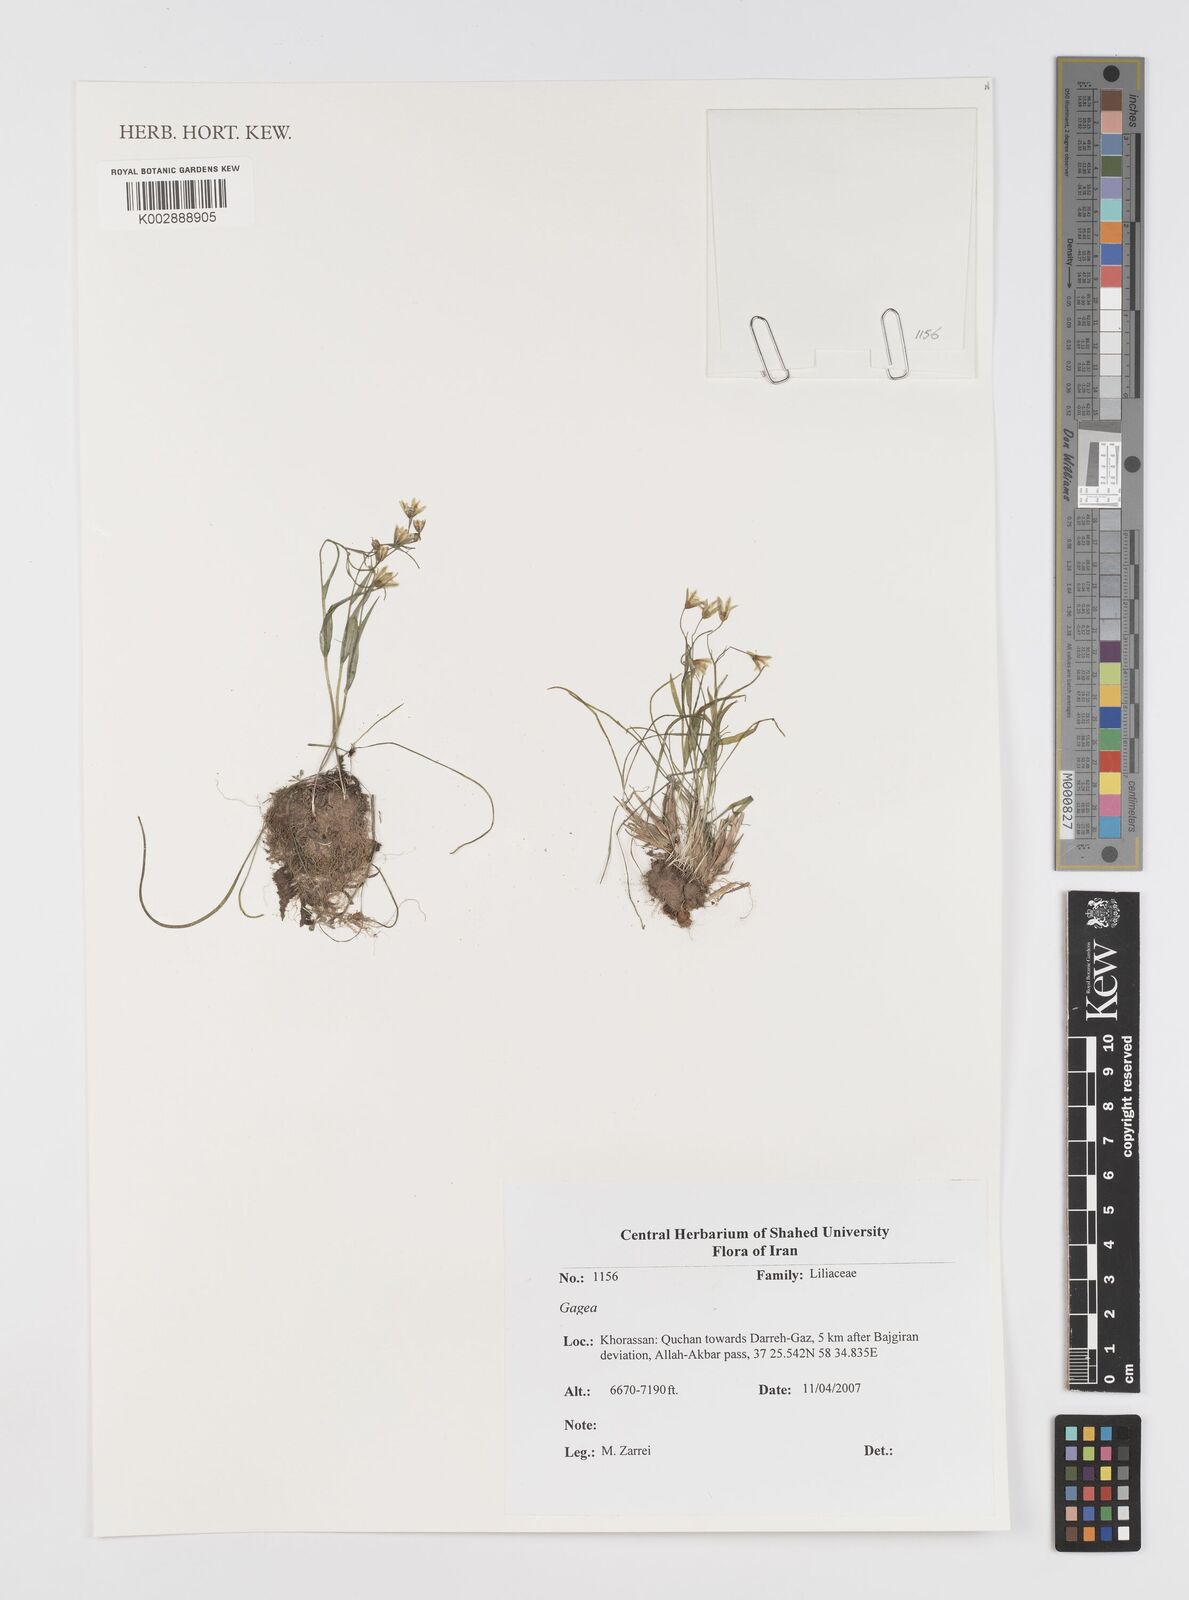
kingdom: Plantae
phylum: Tracheophyta
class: Liliopsida
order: Liliales
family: Liliaceae
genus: Gagea
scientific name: Gagea
